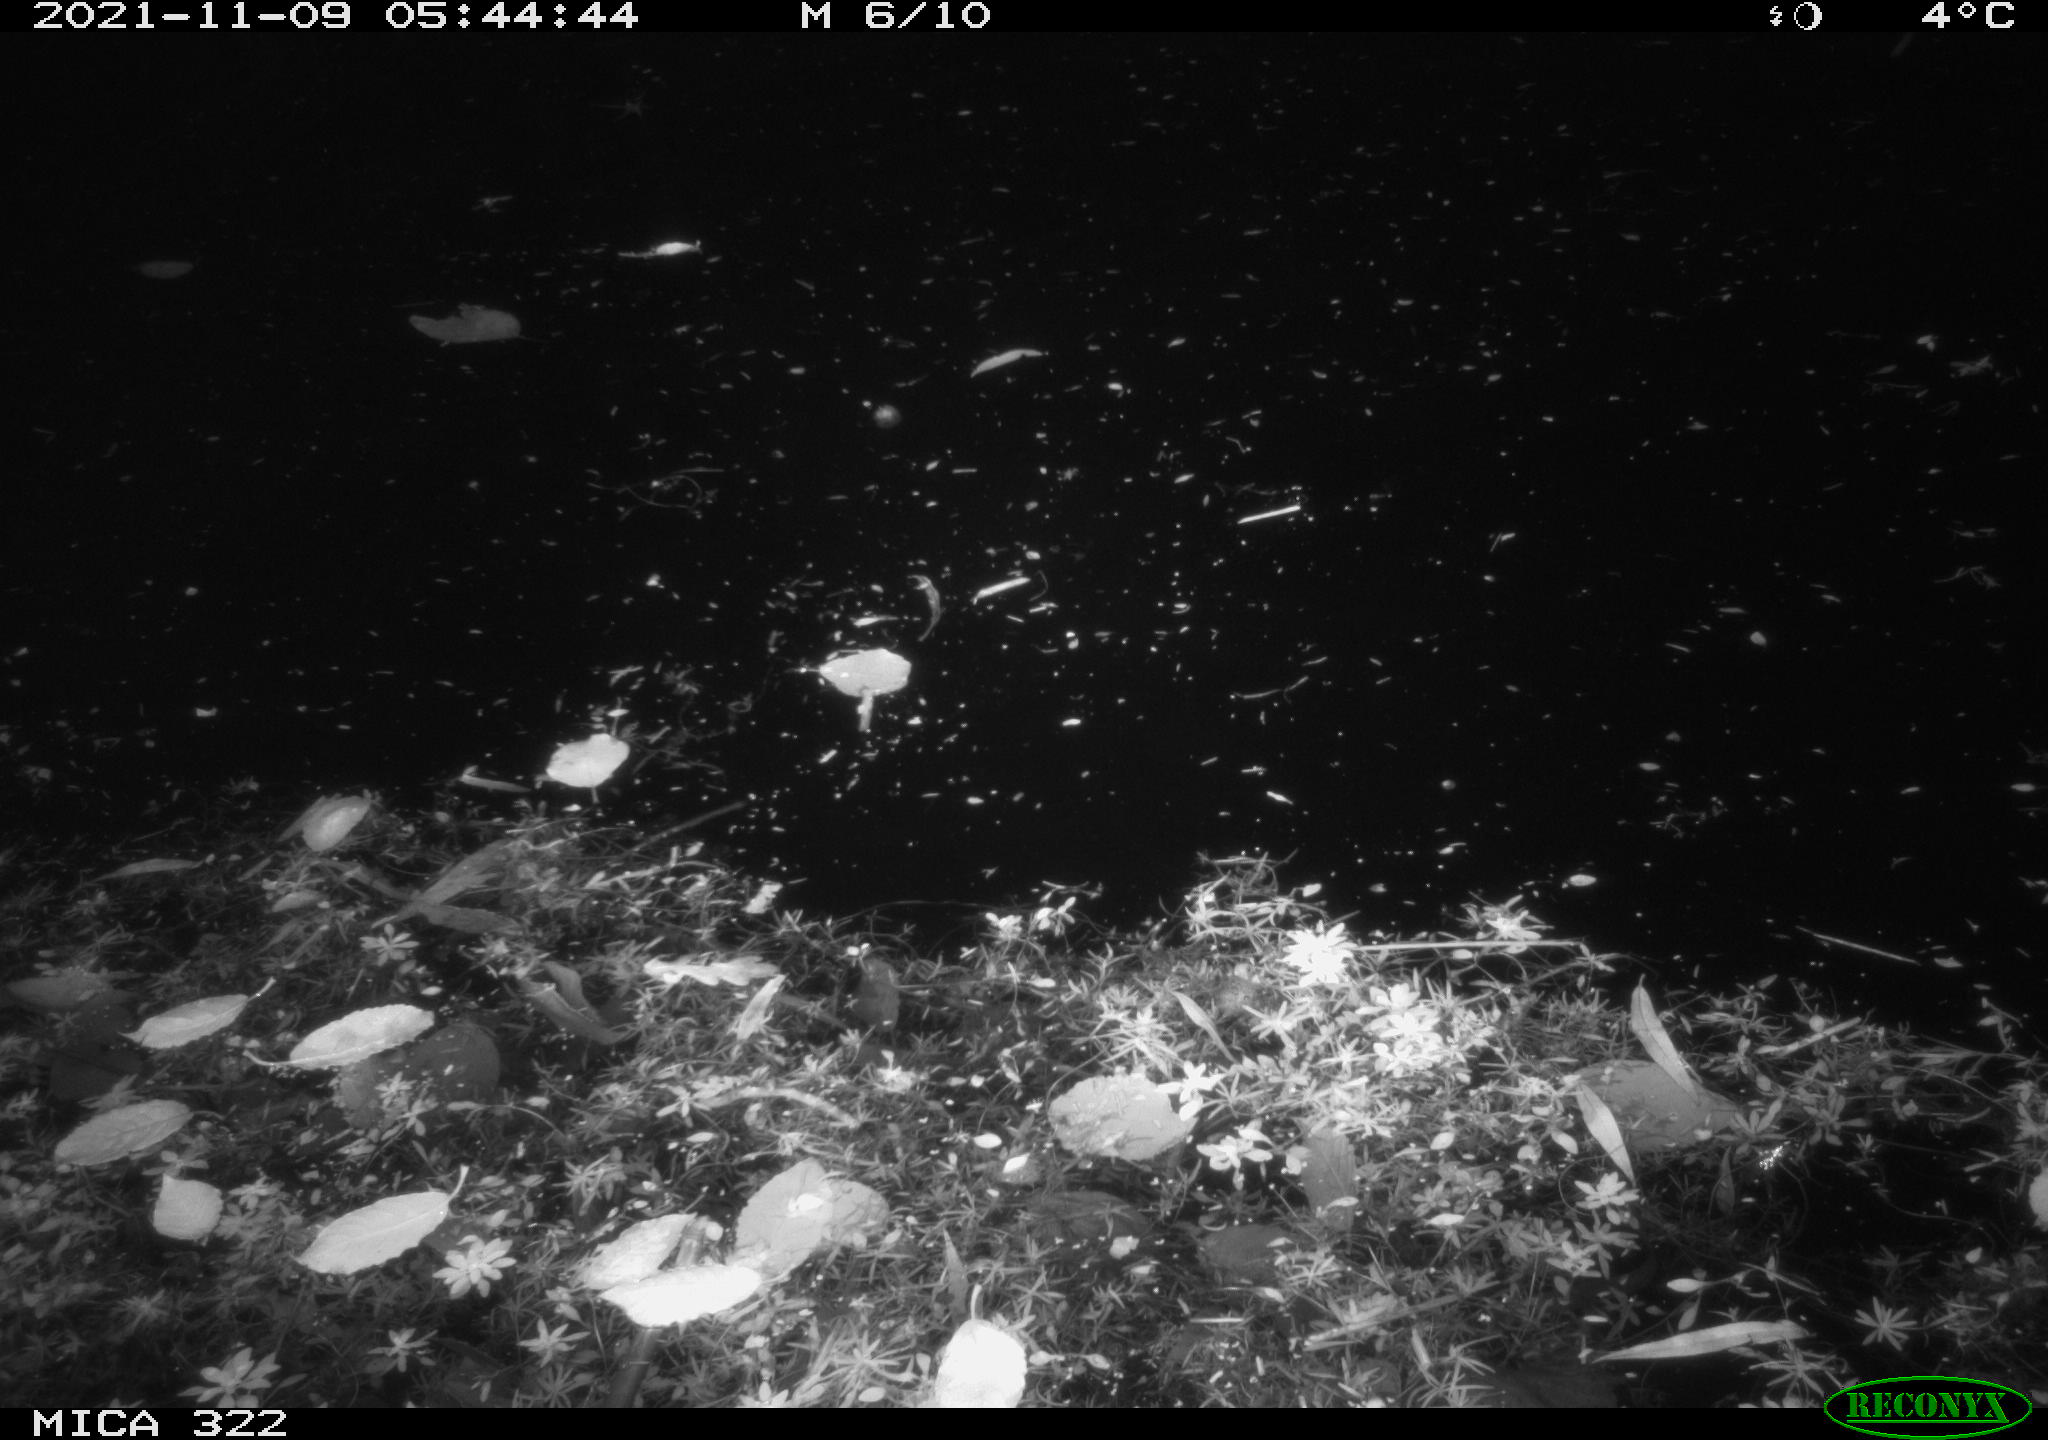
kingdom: Animalia
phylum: Chordata
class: Aves
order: Anseriformes
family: Anatidae
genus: Anas
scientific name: Anas platyrhynchos
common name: Mallard
